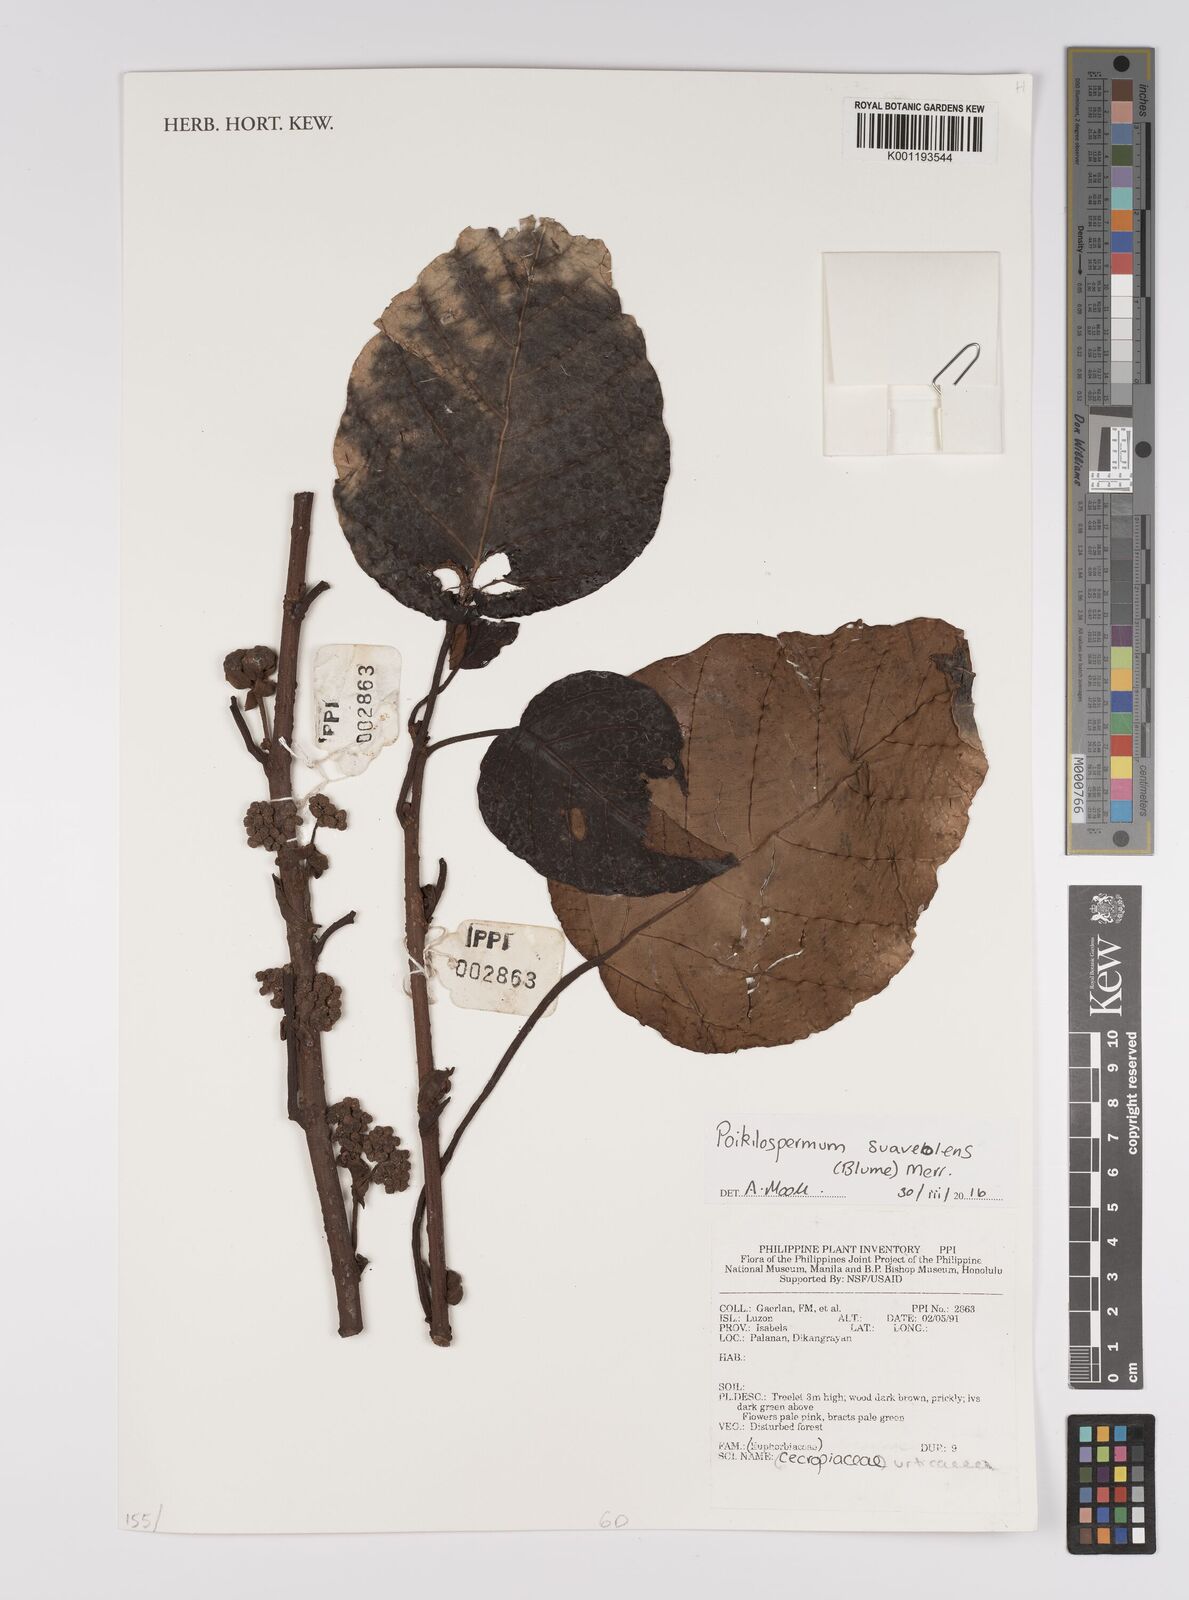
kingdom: Plantae
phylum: Tracheophyta
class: Magnoliopsida
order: Rosales
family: Urticaceae
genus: Poikilospermum
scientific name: Poikilospermum suaveolens
